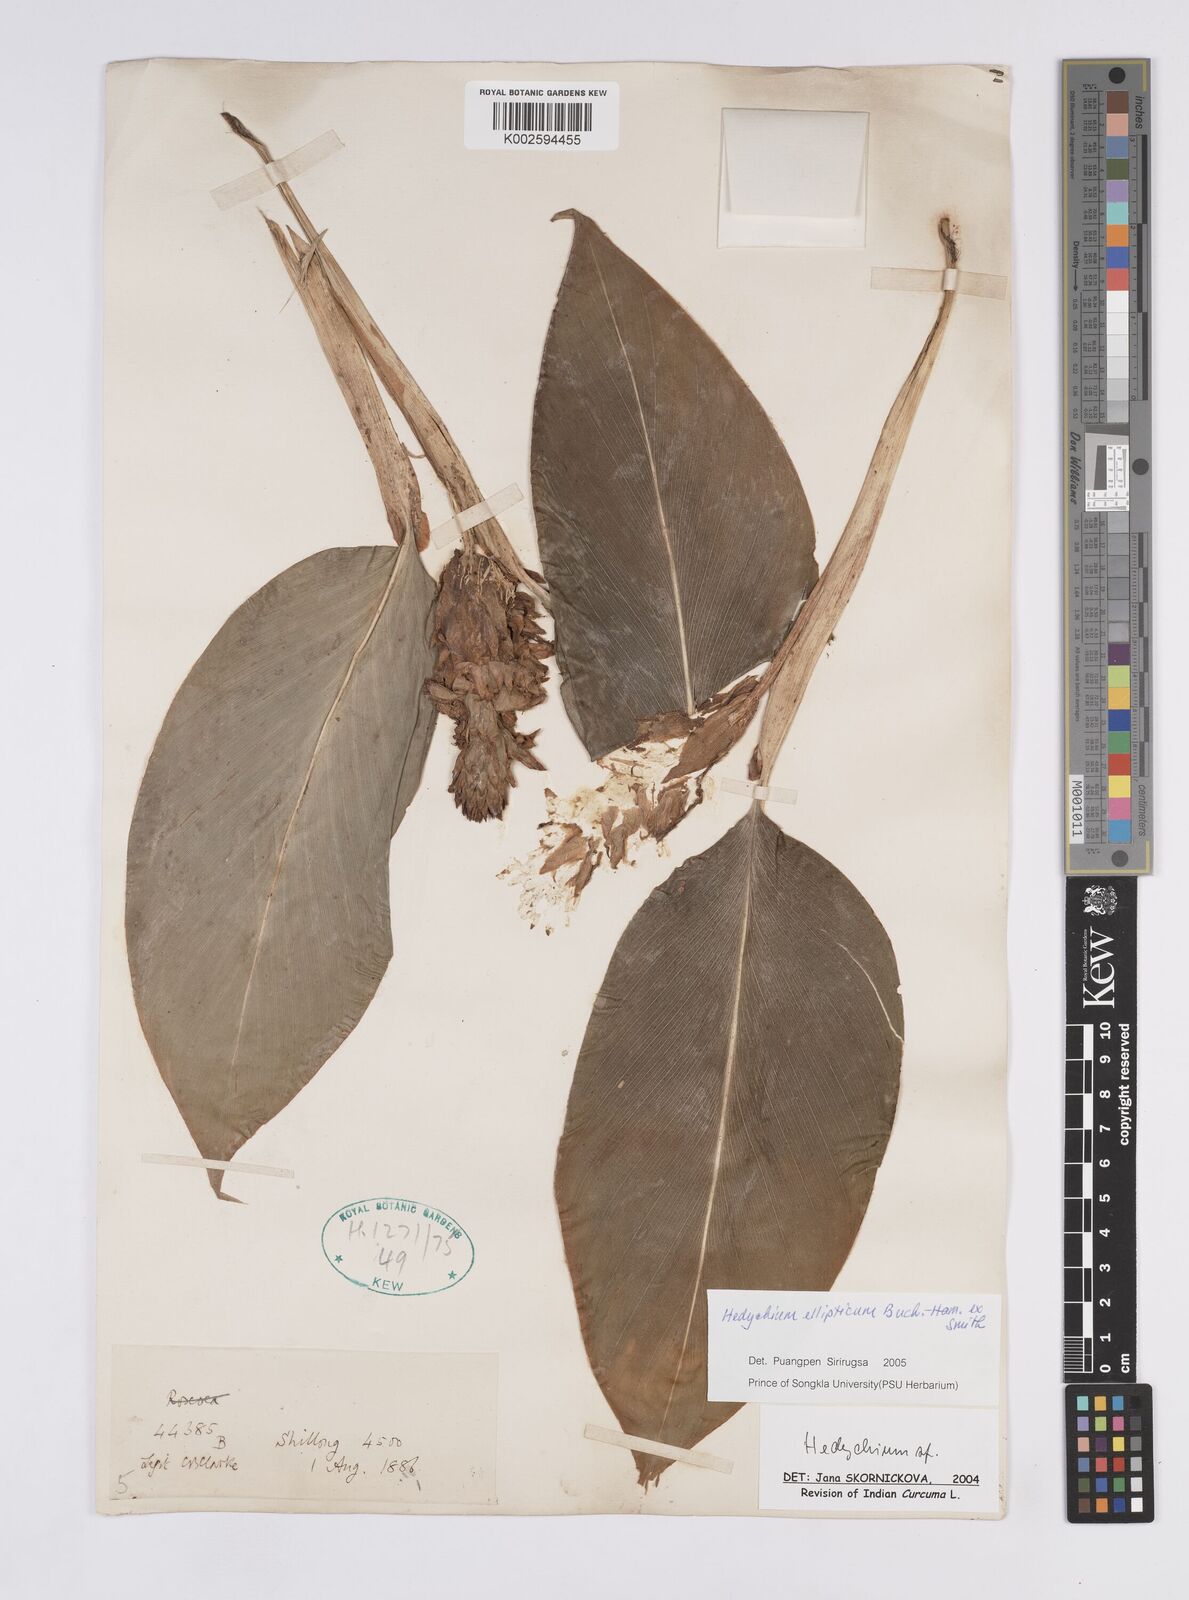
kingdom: Plantae
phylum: Tracheophyta
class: Liliopsida
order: Zingiberales
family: Zingiberaceae
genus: Hedychium
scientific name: Hedychium ellipticum
